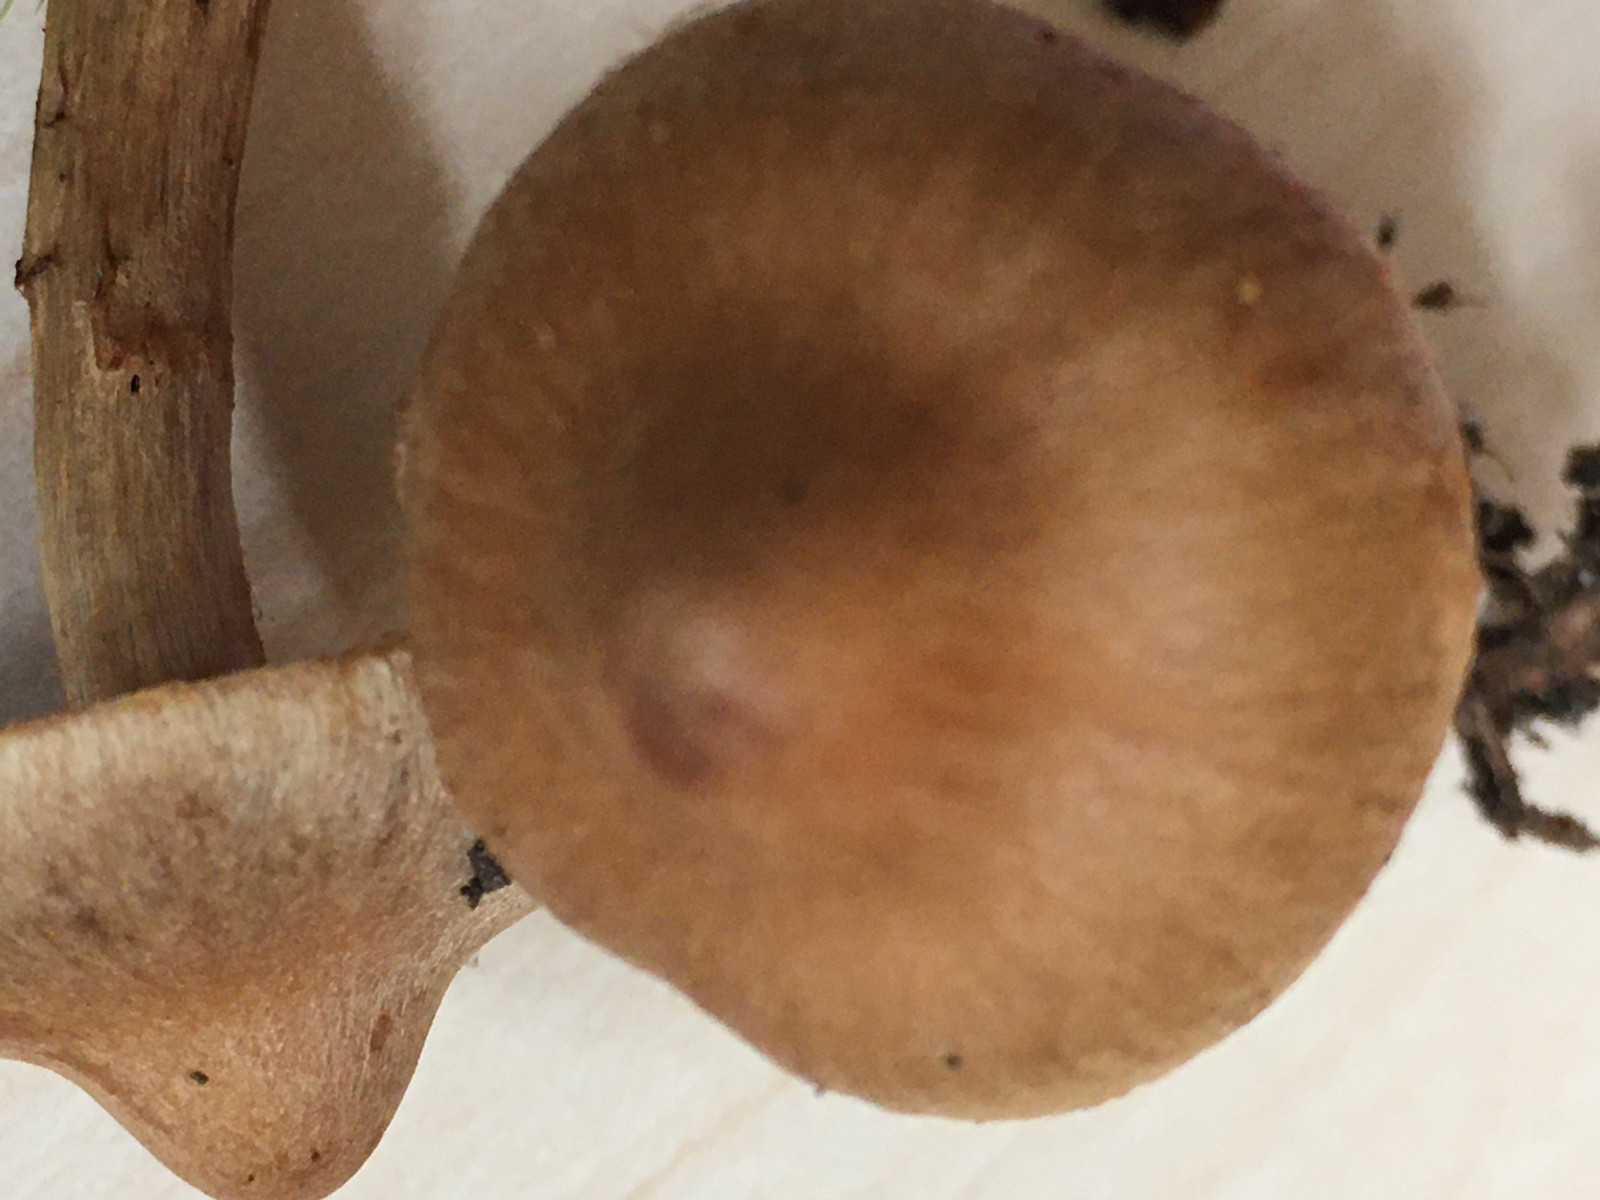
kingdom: Fungi
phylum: Basidiomycota
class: Agaricomycetes
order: Agaricales
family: Cortinariaceae
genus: Cortinarius
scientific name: Cortinarius
